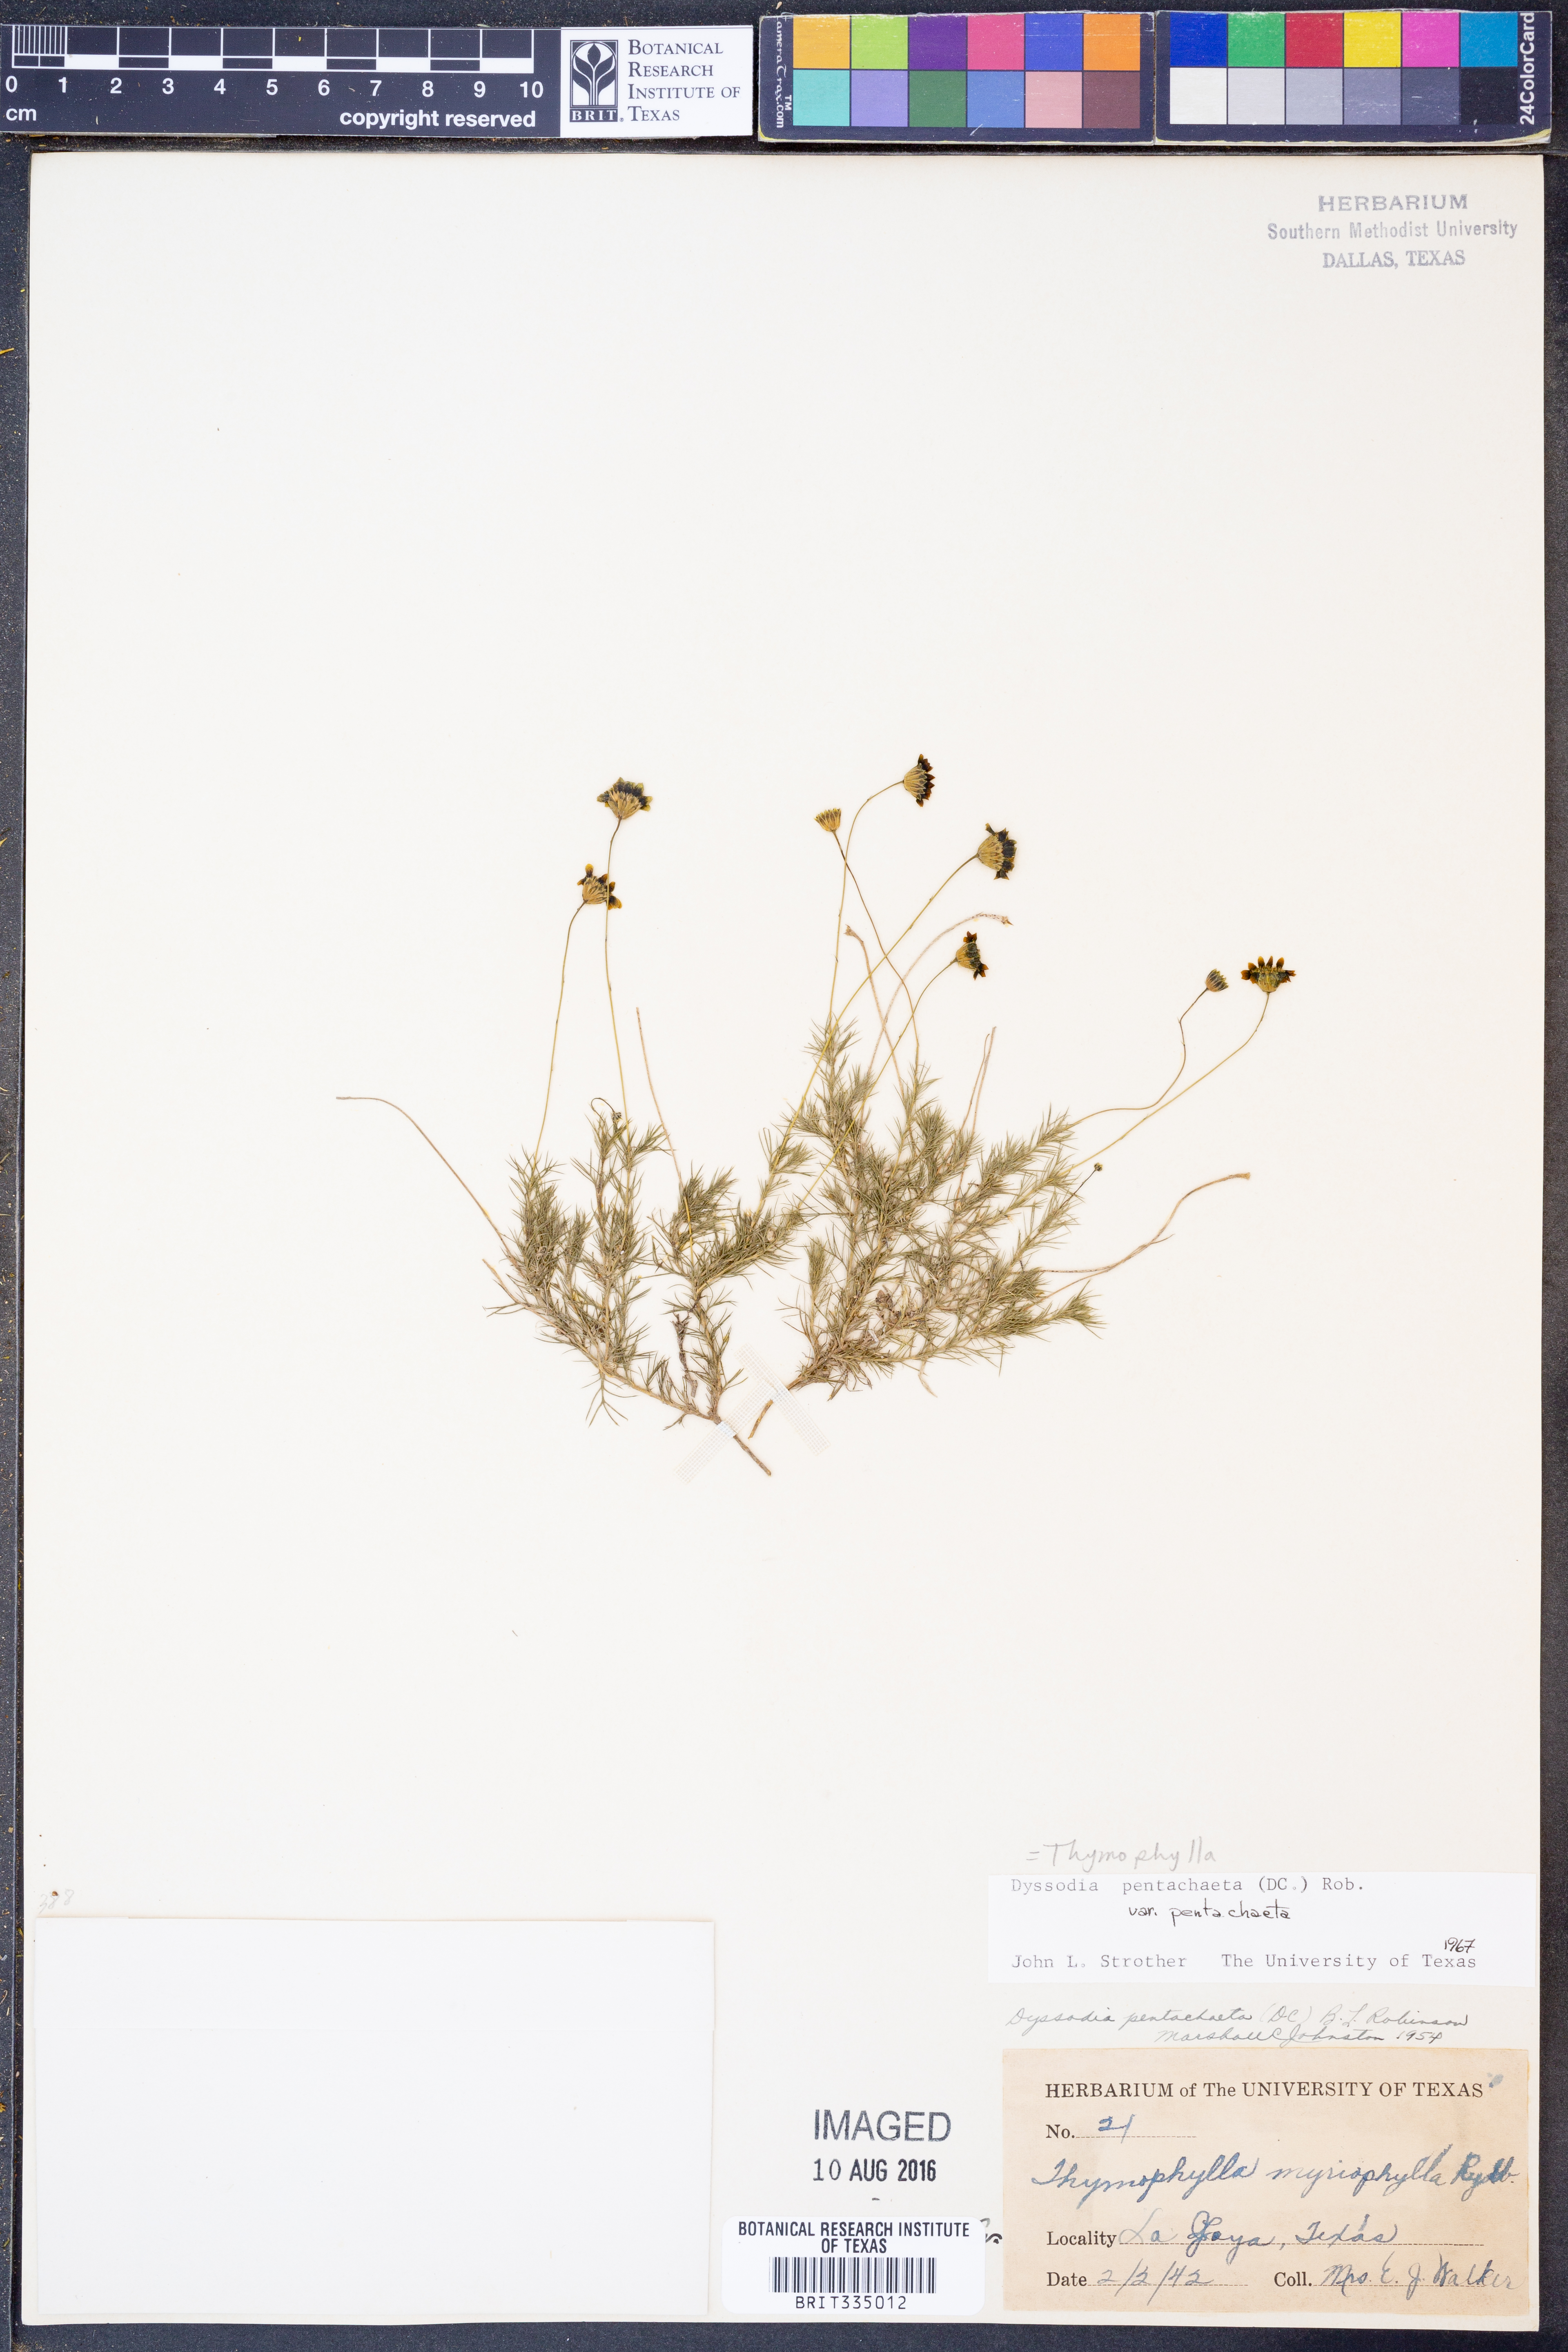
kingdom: Plantae
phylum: Tracheophyta
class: Magnoliopsida
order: Asterales
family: Asteraceae
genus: Thymophylla
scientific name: Thymophylla pentachaeta
